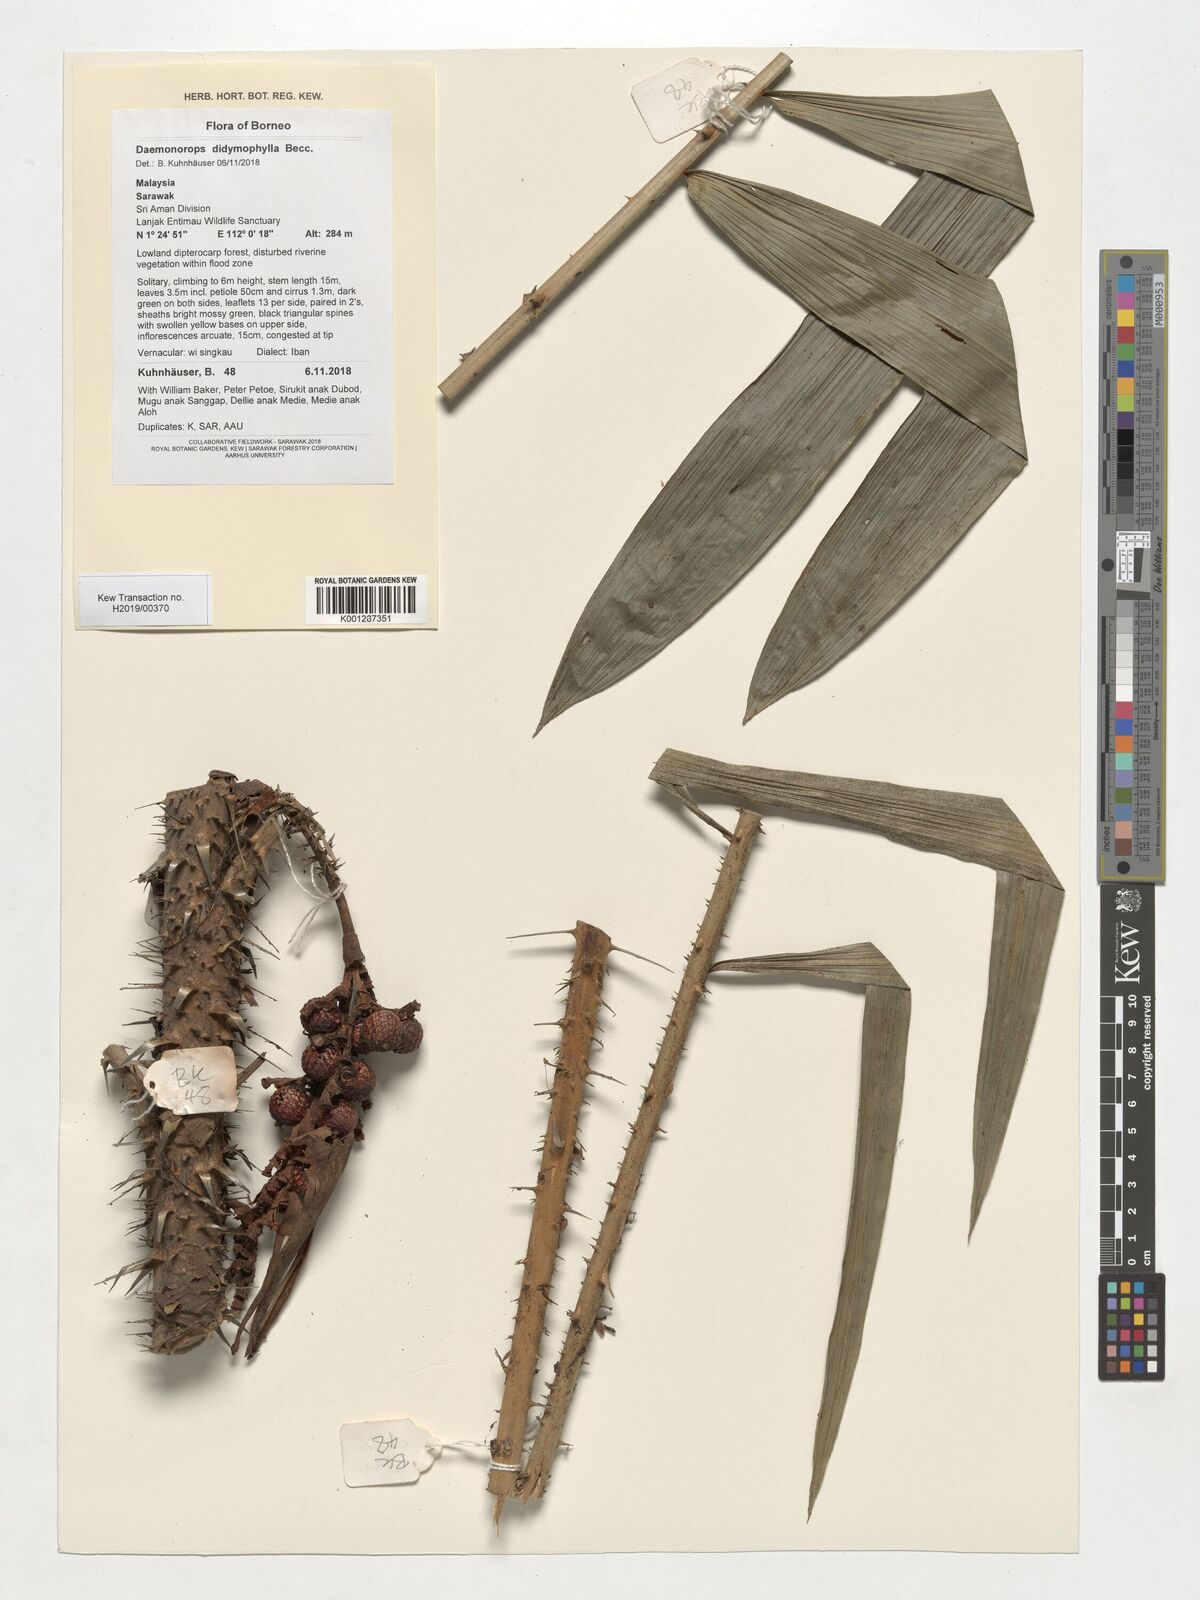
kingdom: Plantae
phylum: Tracheophyta
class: Liliopsida
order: Arecales
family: Arecaceae
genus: Calamus
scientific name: Calamus gracilipes
